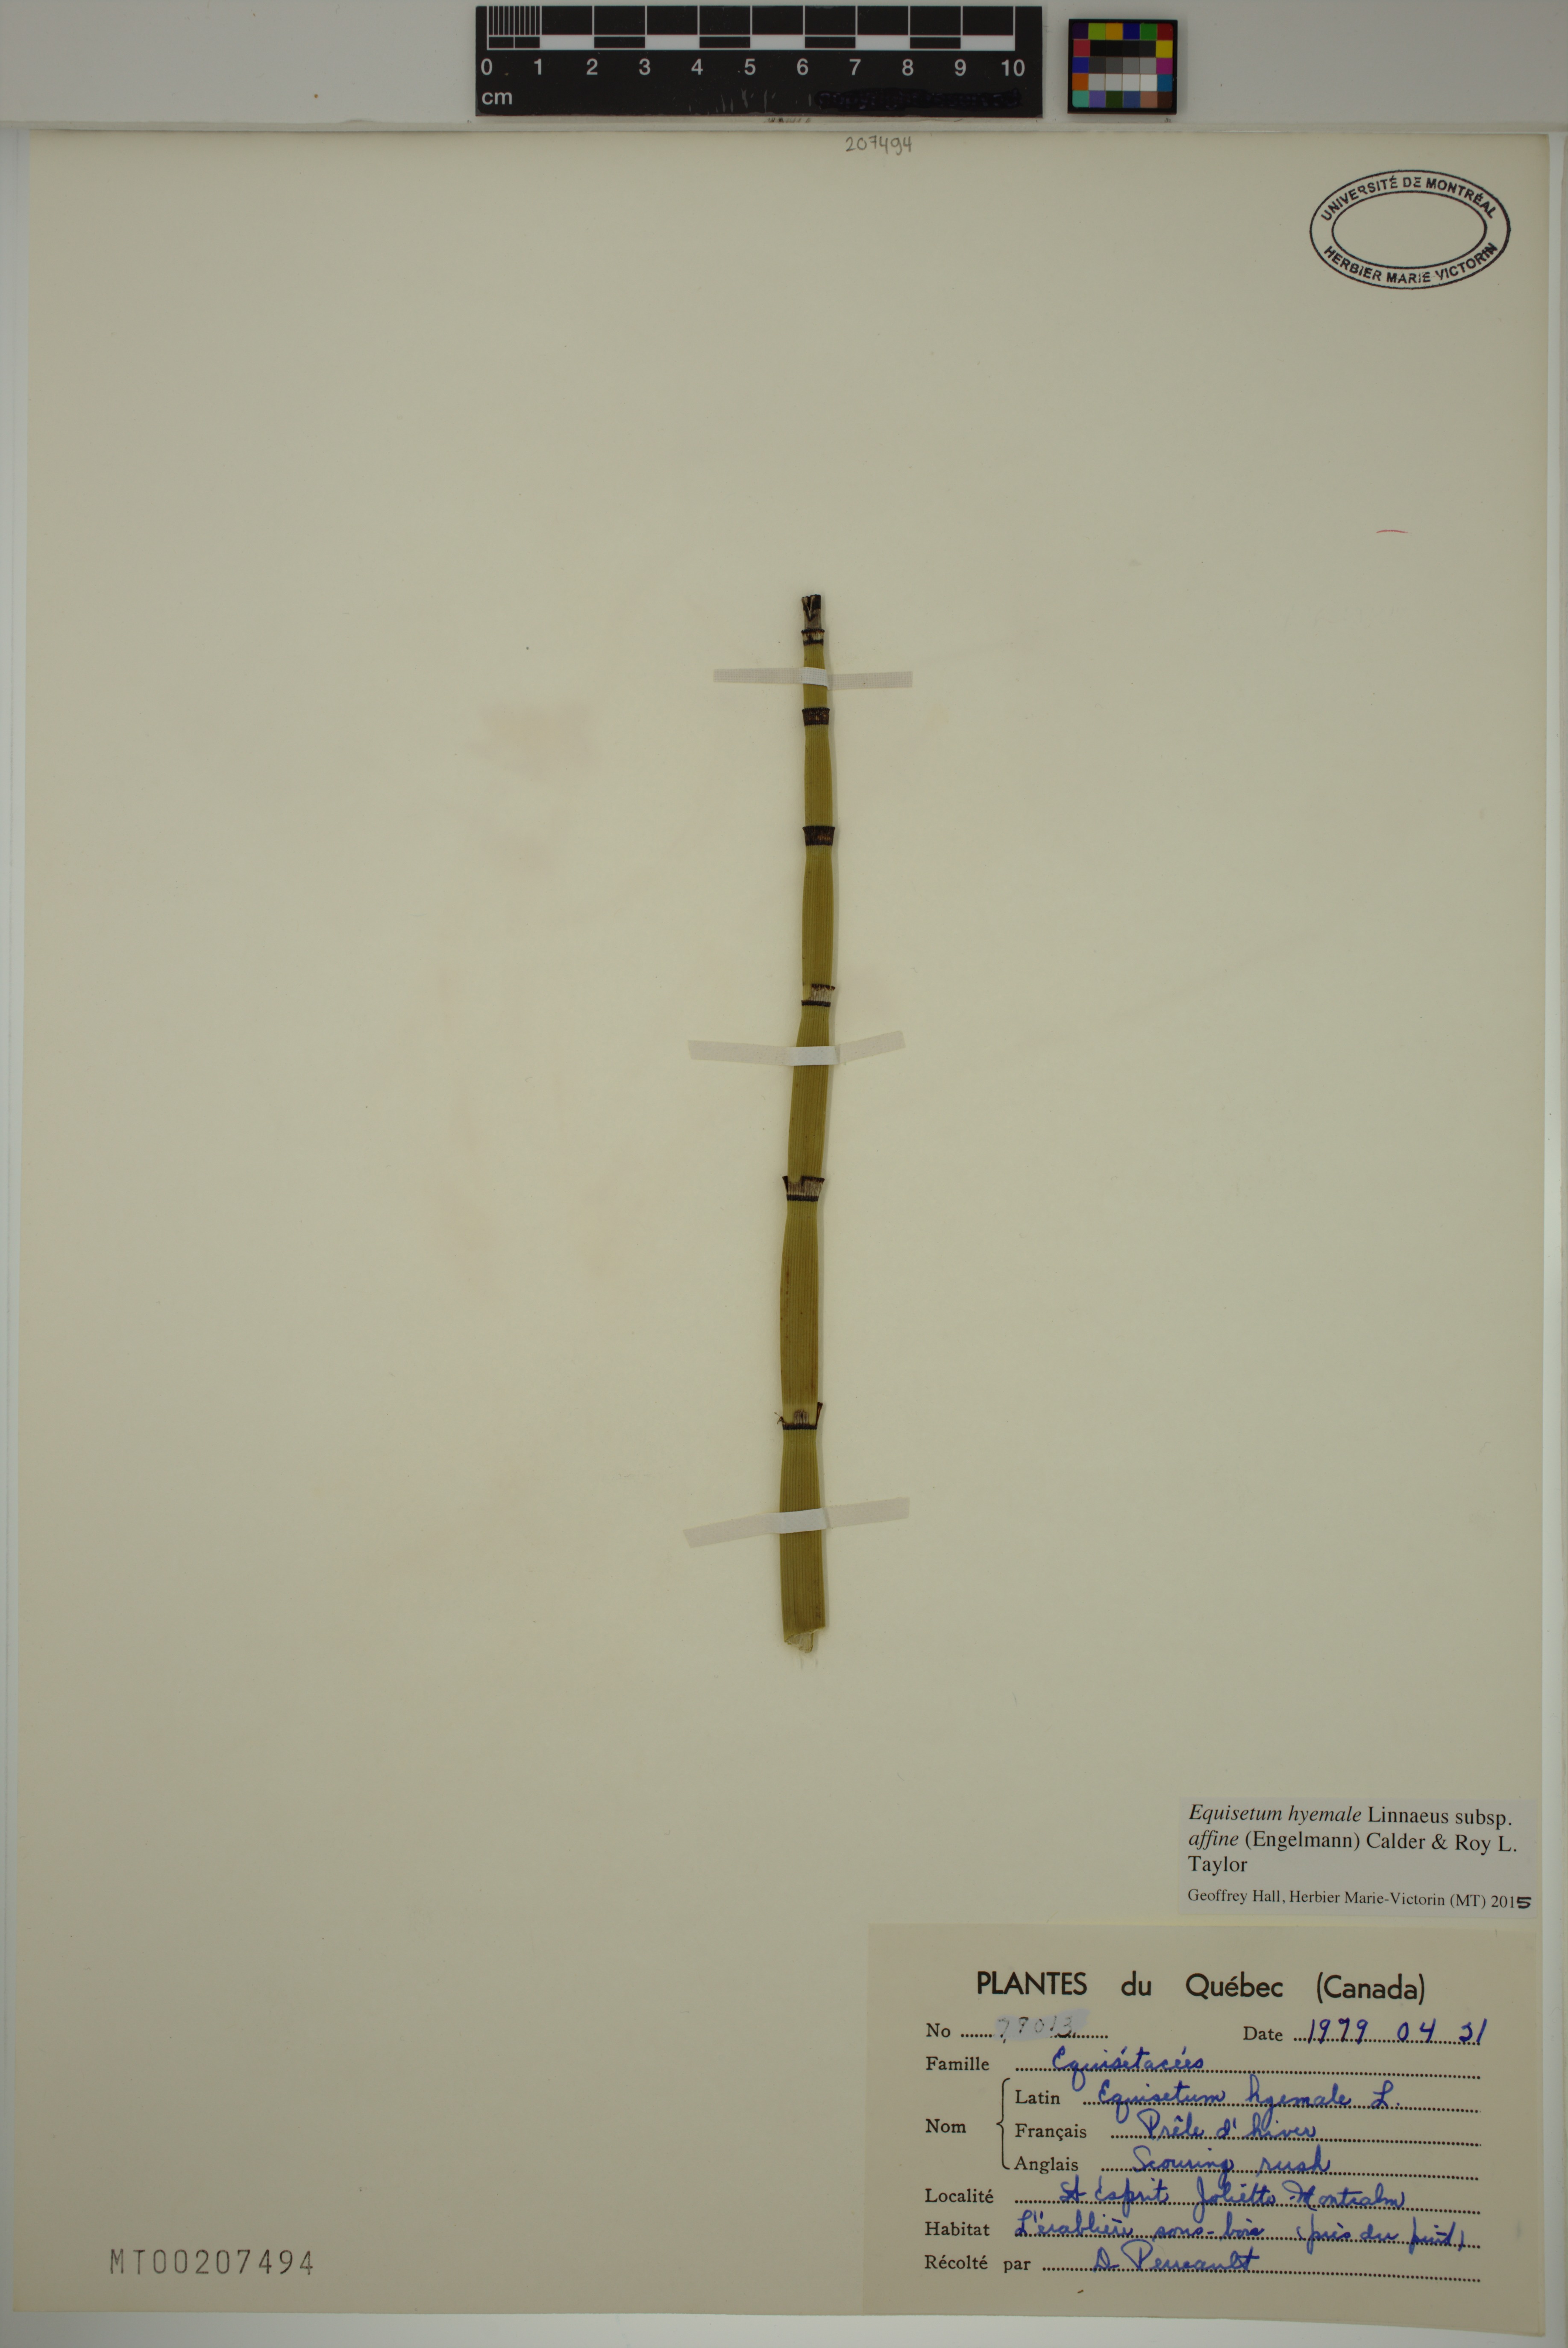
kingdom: Plantae
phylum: Tracheophyta
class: Polypodiopsida
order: Equisetales
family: Equisetaceae
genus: Equisetum
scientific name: Equisetum praealtum
